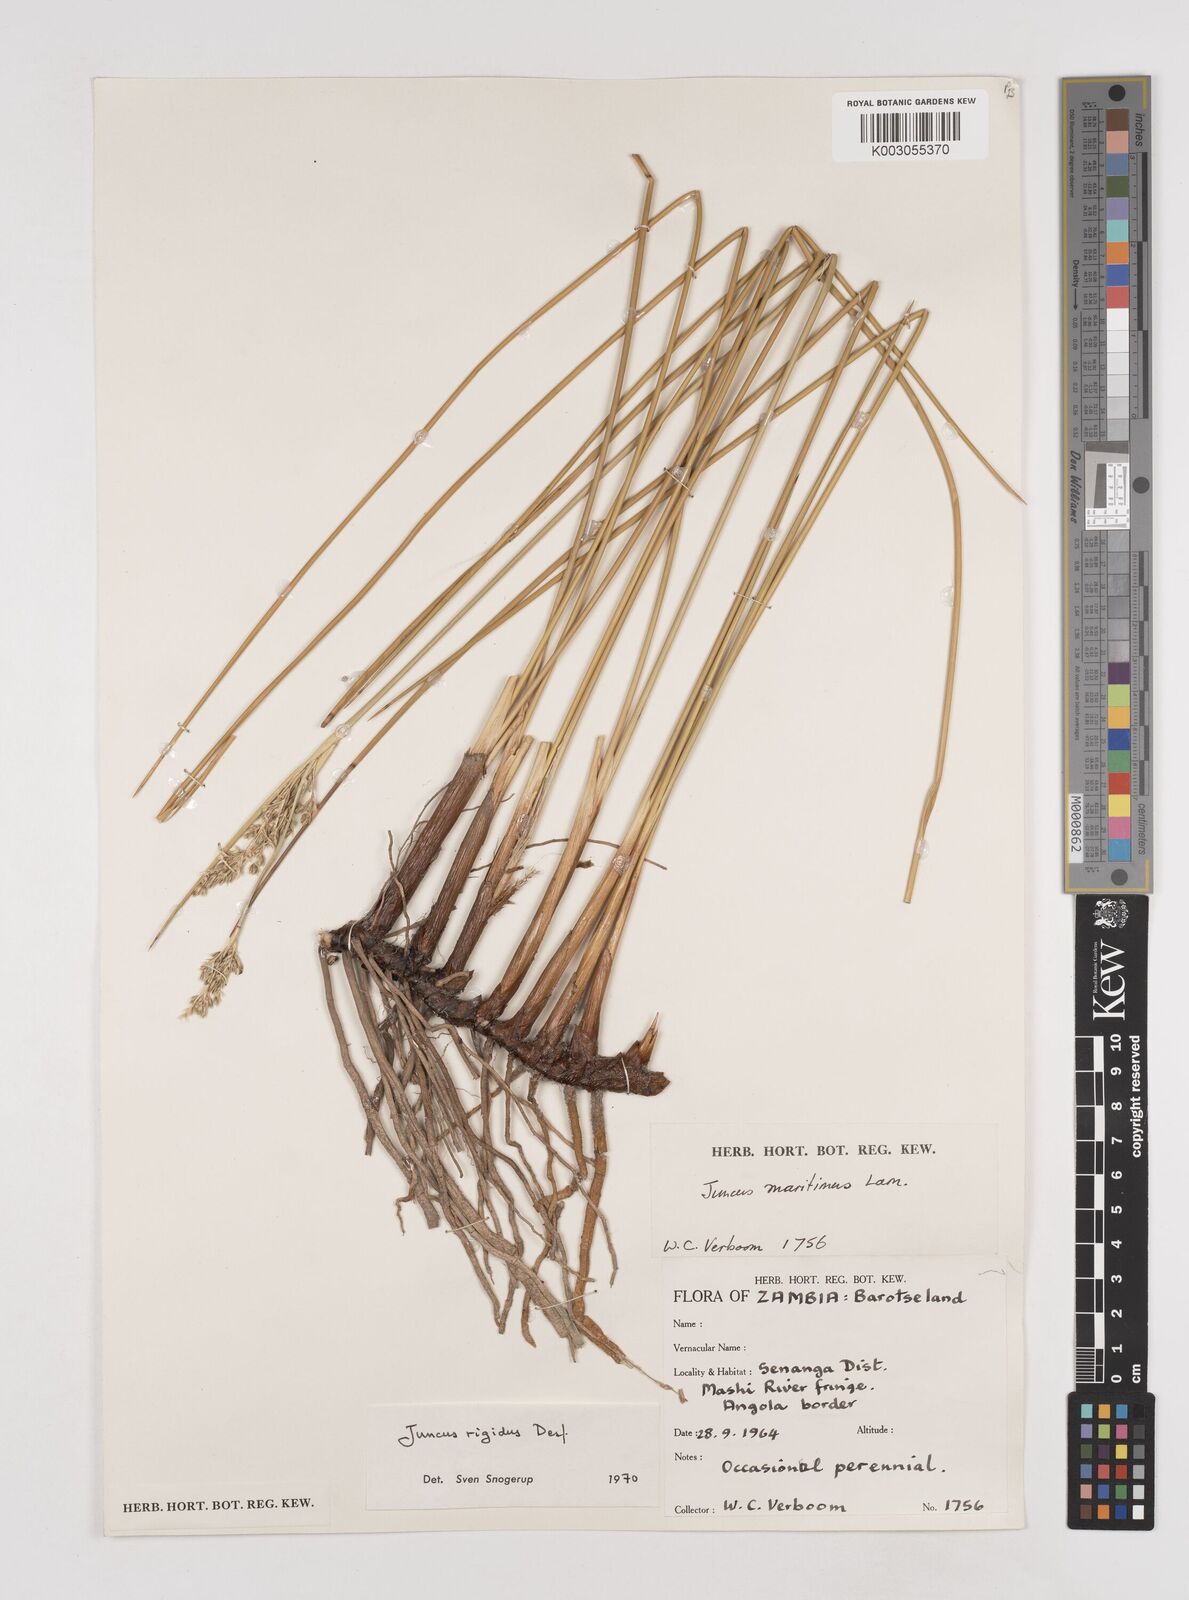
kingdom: Plantae
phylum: Tracheophyta
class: Liliopsida
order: Poales
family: Juncaceae
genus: Juncus
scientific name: Juncus rigidus
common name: Hard sea rush
